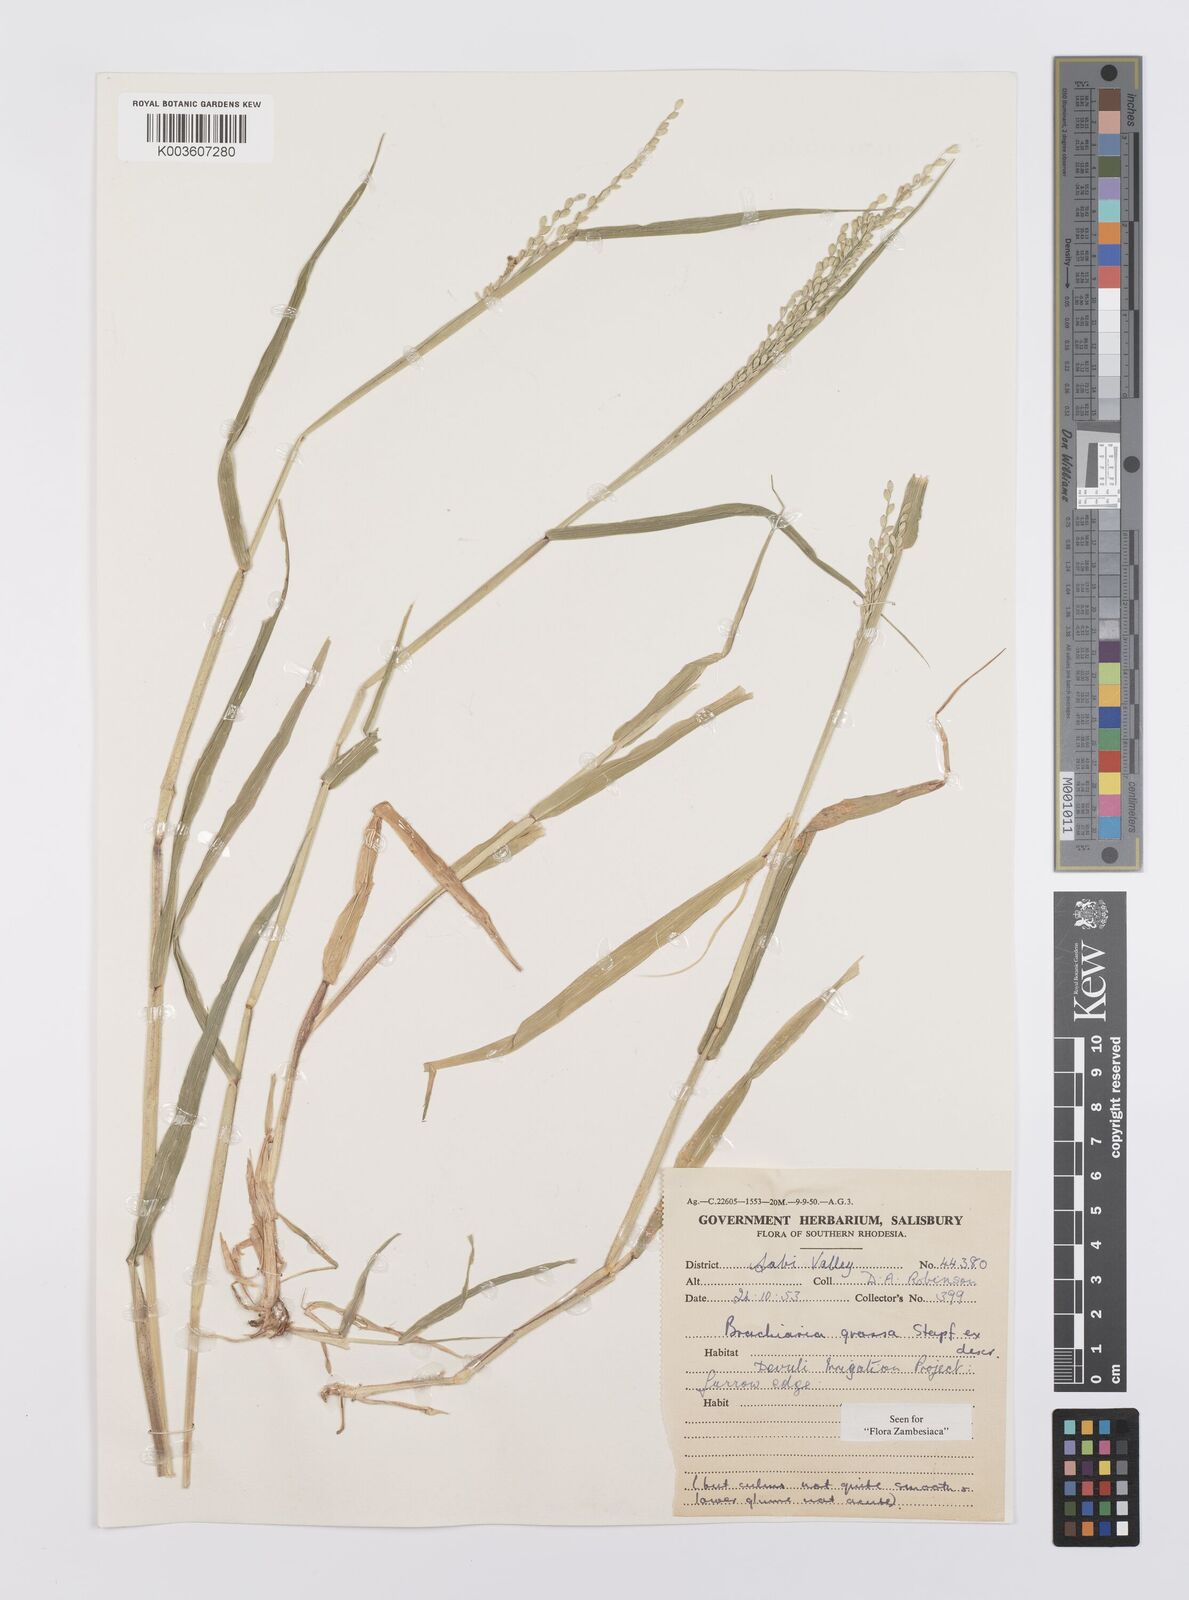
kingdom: Plantae
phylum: Tracheophyta
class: Liliopsida
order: Poales
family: Poaceae
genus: Urochloa
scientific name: Urochloa Brachiaria grossa
